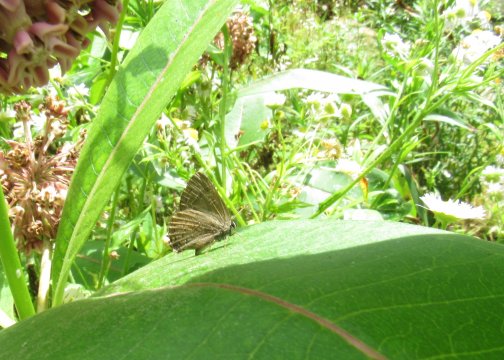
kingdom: Animalia
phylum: Arthropoda
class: Insecta
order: Lepidoptera
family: Lycaenidae
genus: Satyrium
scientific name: Satyrium calanus
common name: Banded Hairstreak
